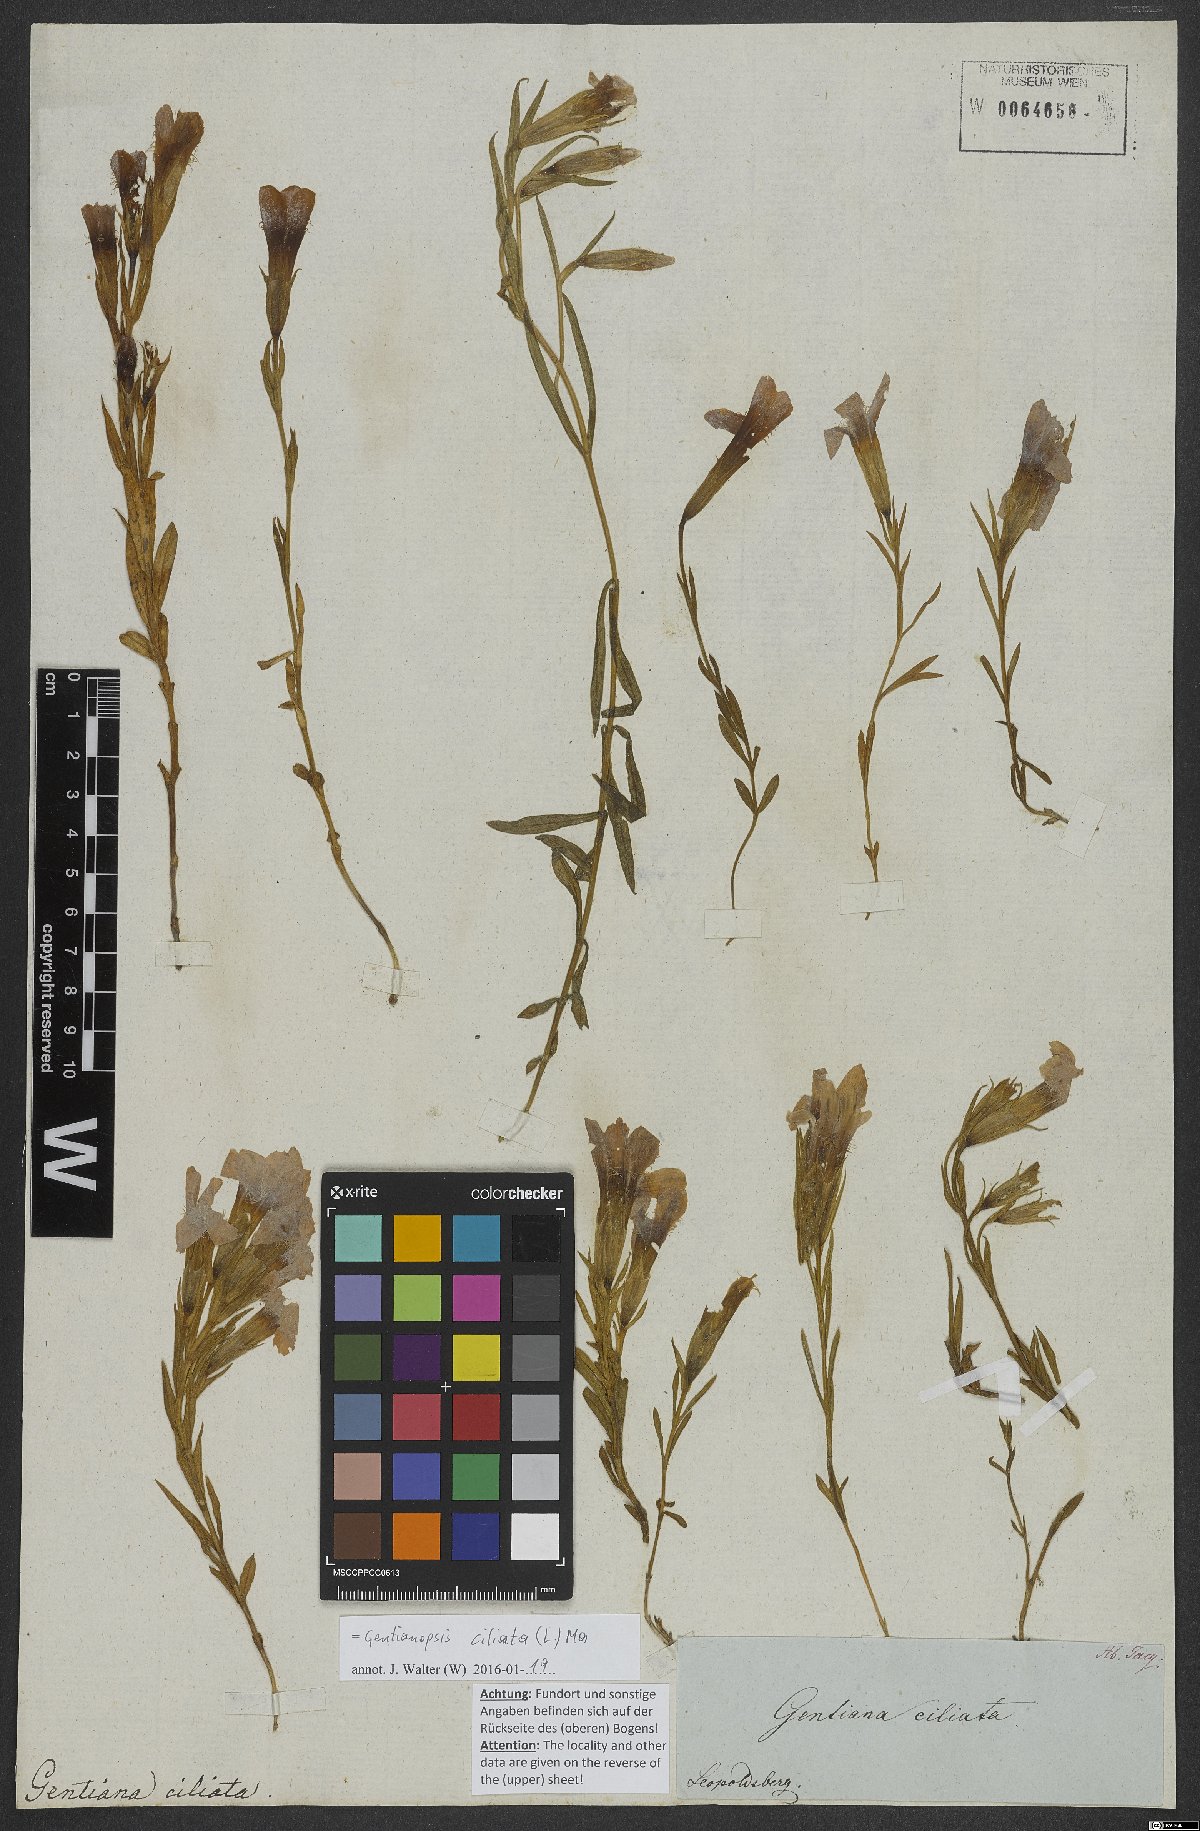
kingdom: Plantae
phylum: Tracheophyta
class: Magnoliopsida
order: Gentianales
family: Gentianaceae
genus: Gentianopsis
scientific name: Gentianopsis ciliata
